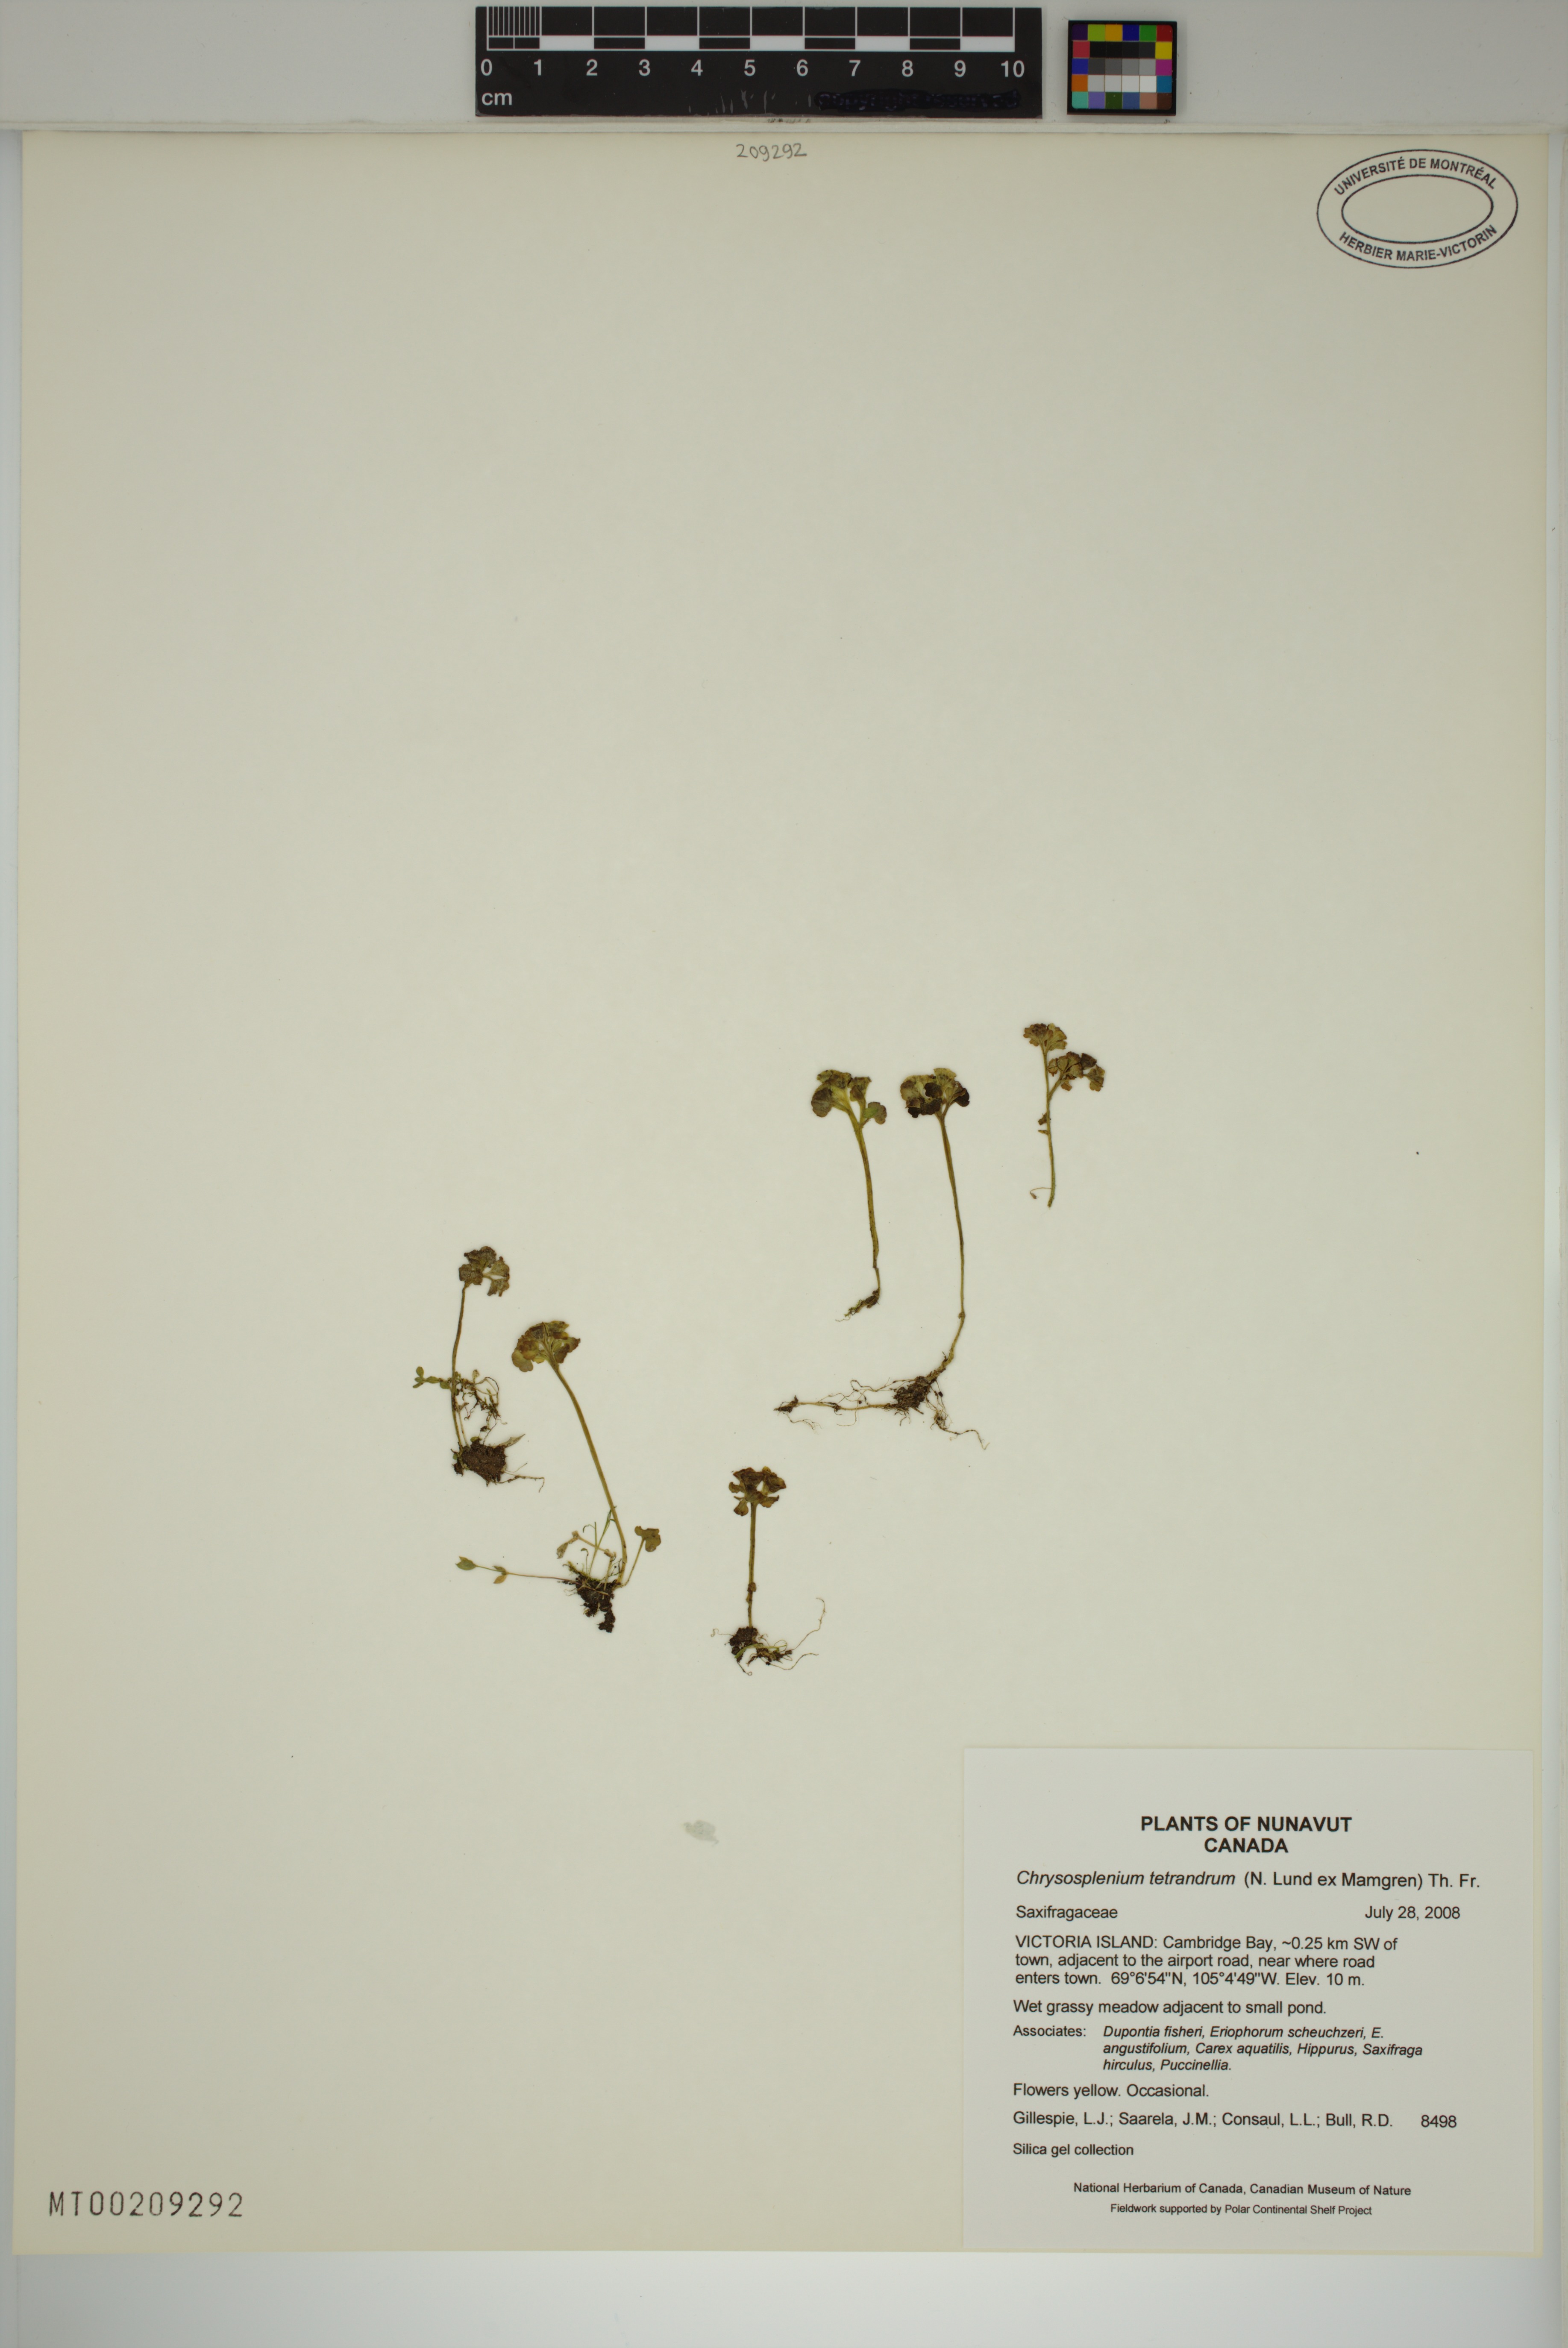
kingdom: Plantae
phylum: Tracheophyta
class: Magnoliopsida
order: Saxifragales
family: Saxifragaceae
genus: Chrysosplenium
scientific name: Chrysosplenium tetrandrum
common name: Green saxifrage
